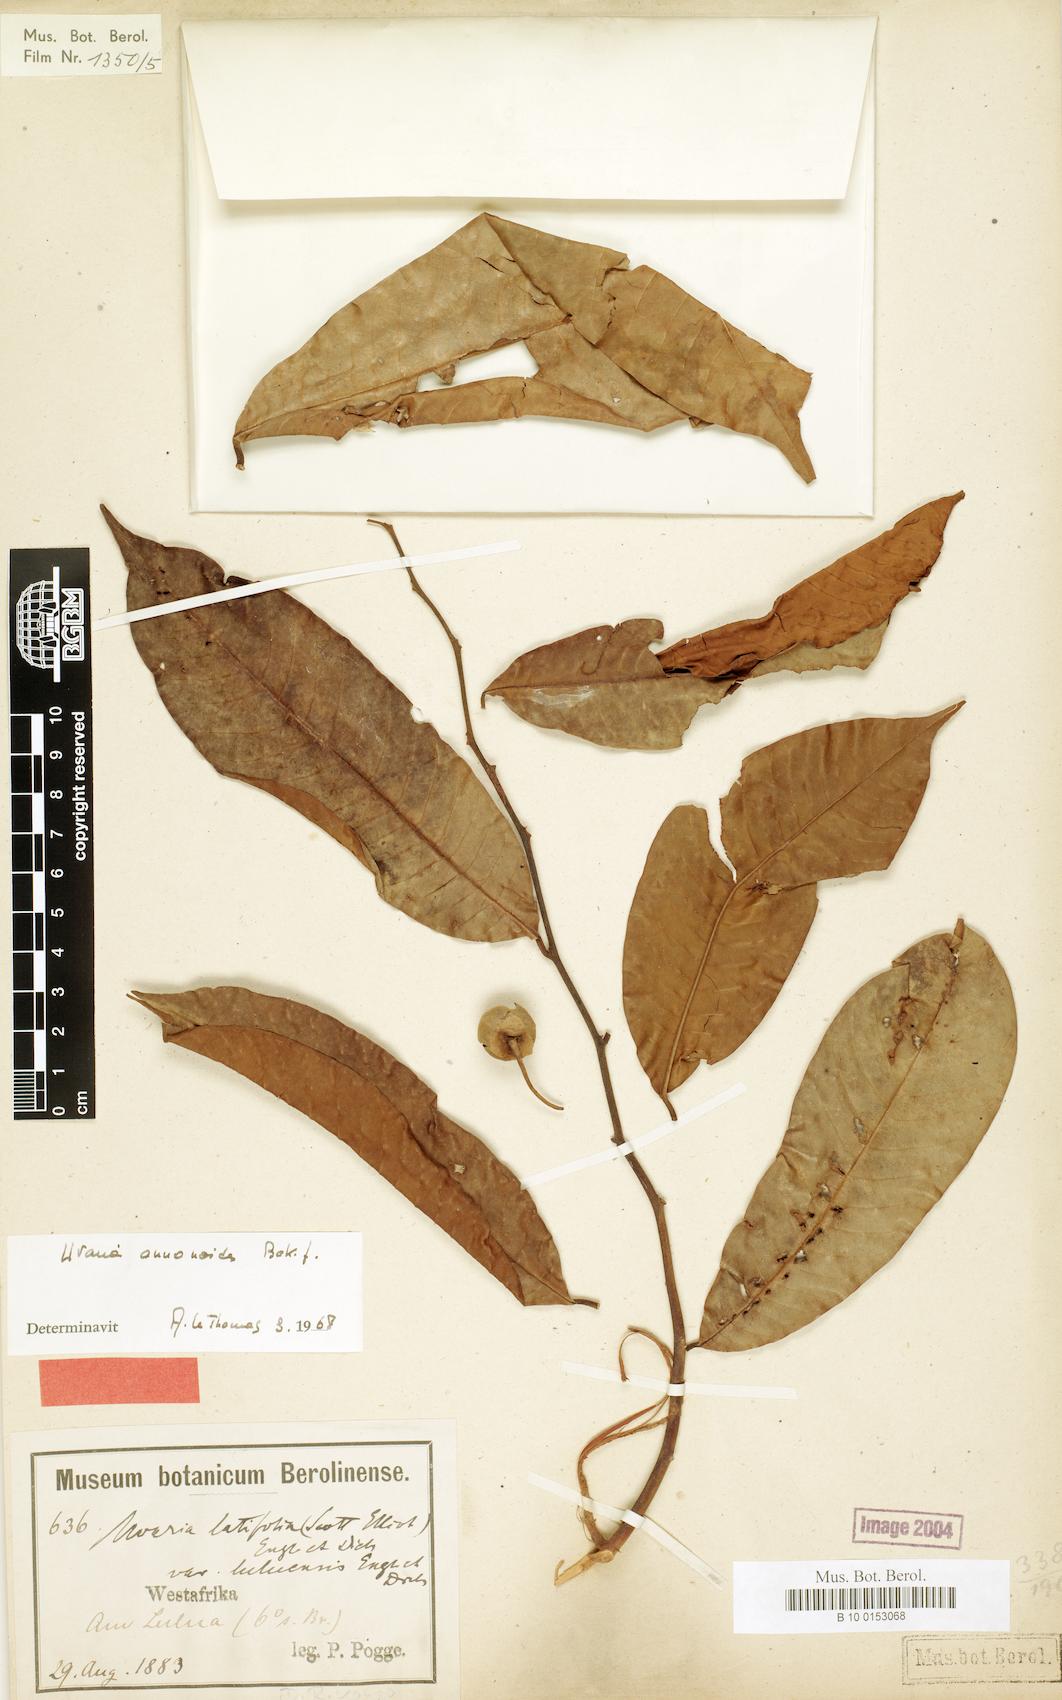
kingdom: Plantae
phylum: Tracheophyta
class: Magnoliopsida
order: Magnoliales
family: Annonaceae
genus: Uvaria
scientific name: Uvaria anonoides
